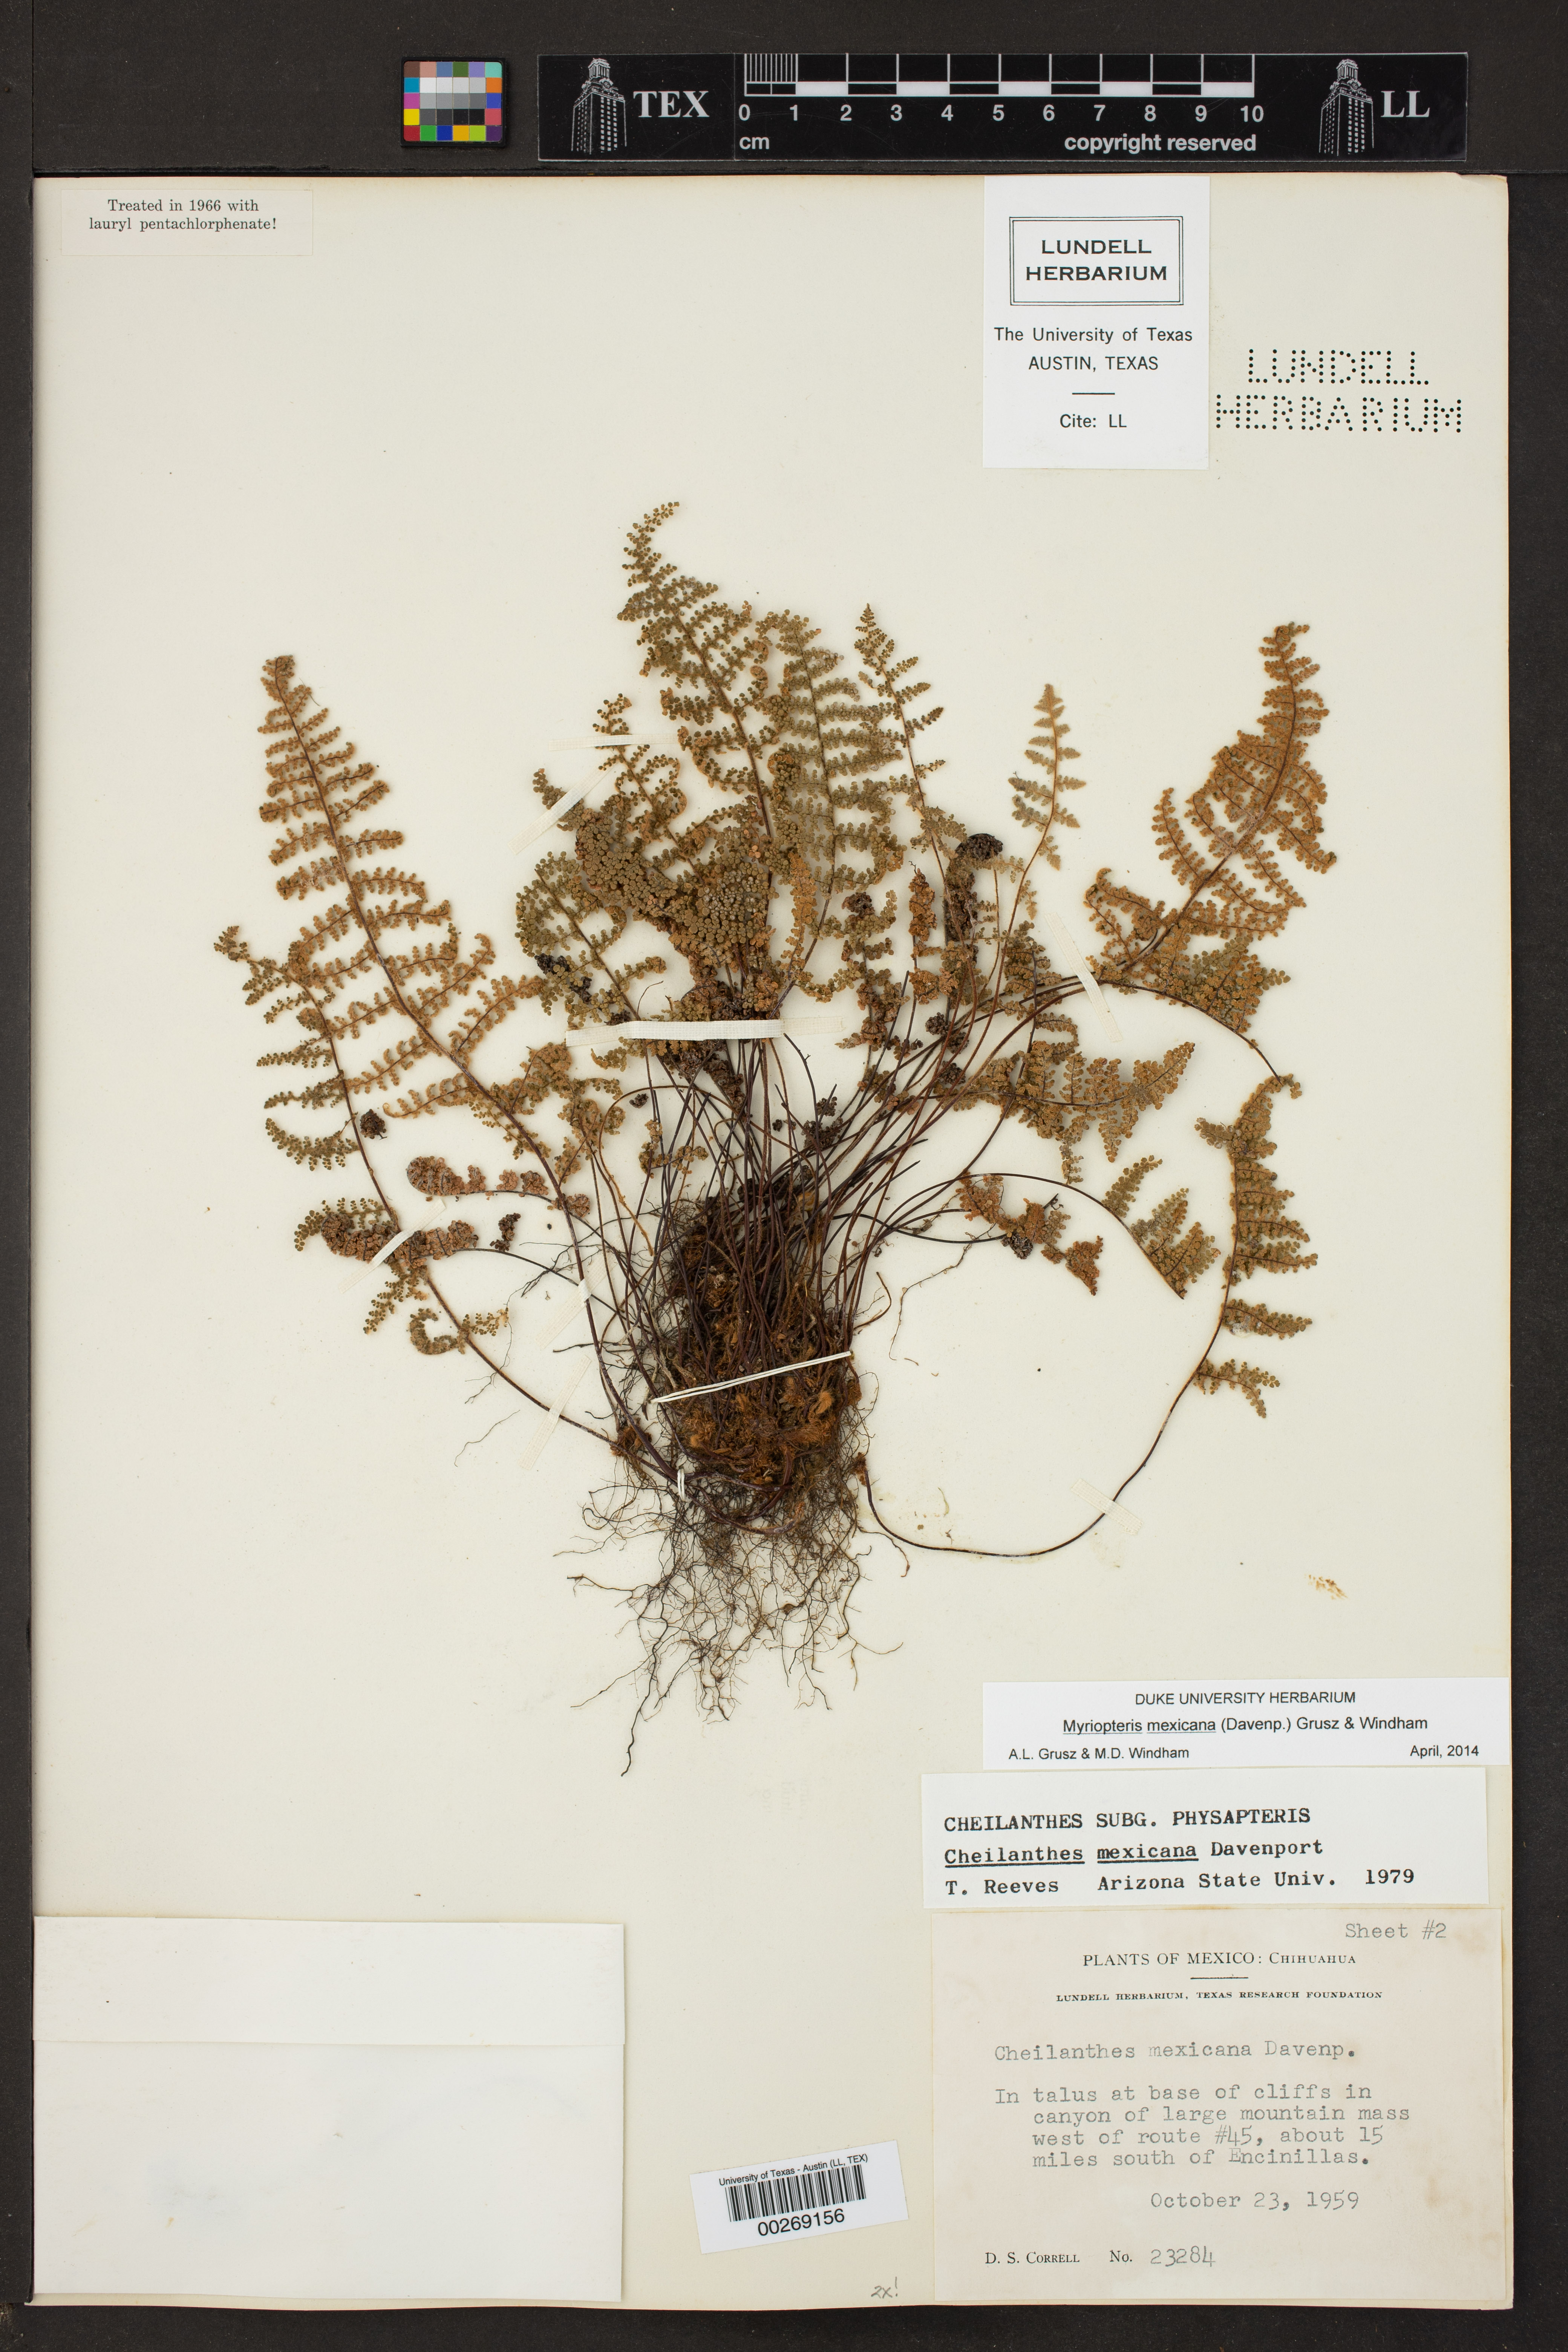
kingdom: Plantae
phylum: Tracheophyta
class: Polypodiopsida
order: Polypodiales
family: Pteridaceae
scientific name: Pteridaceae
